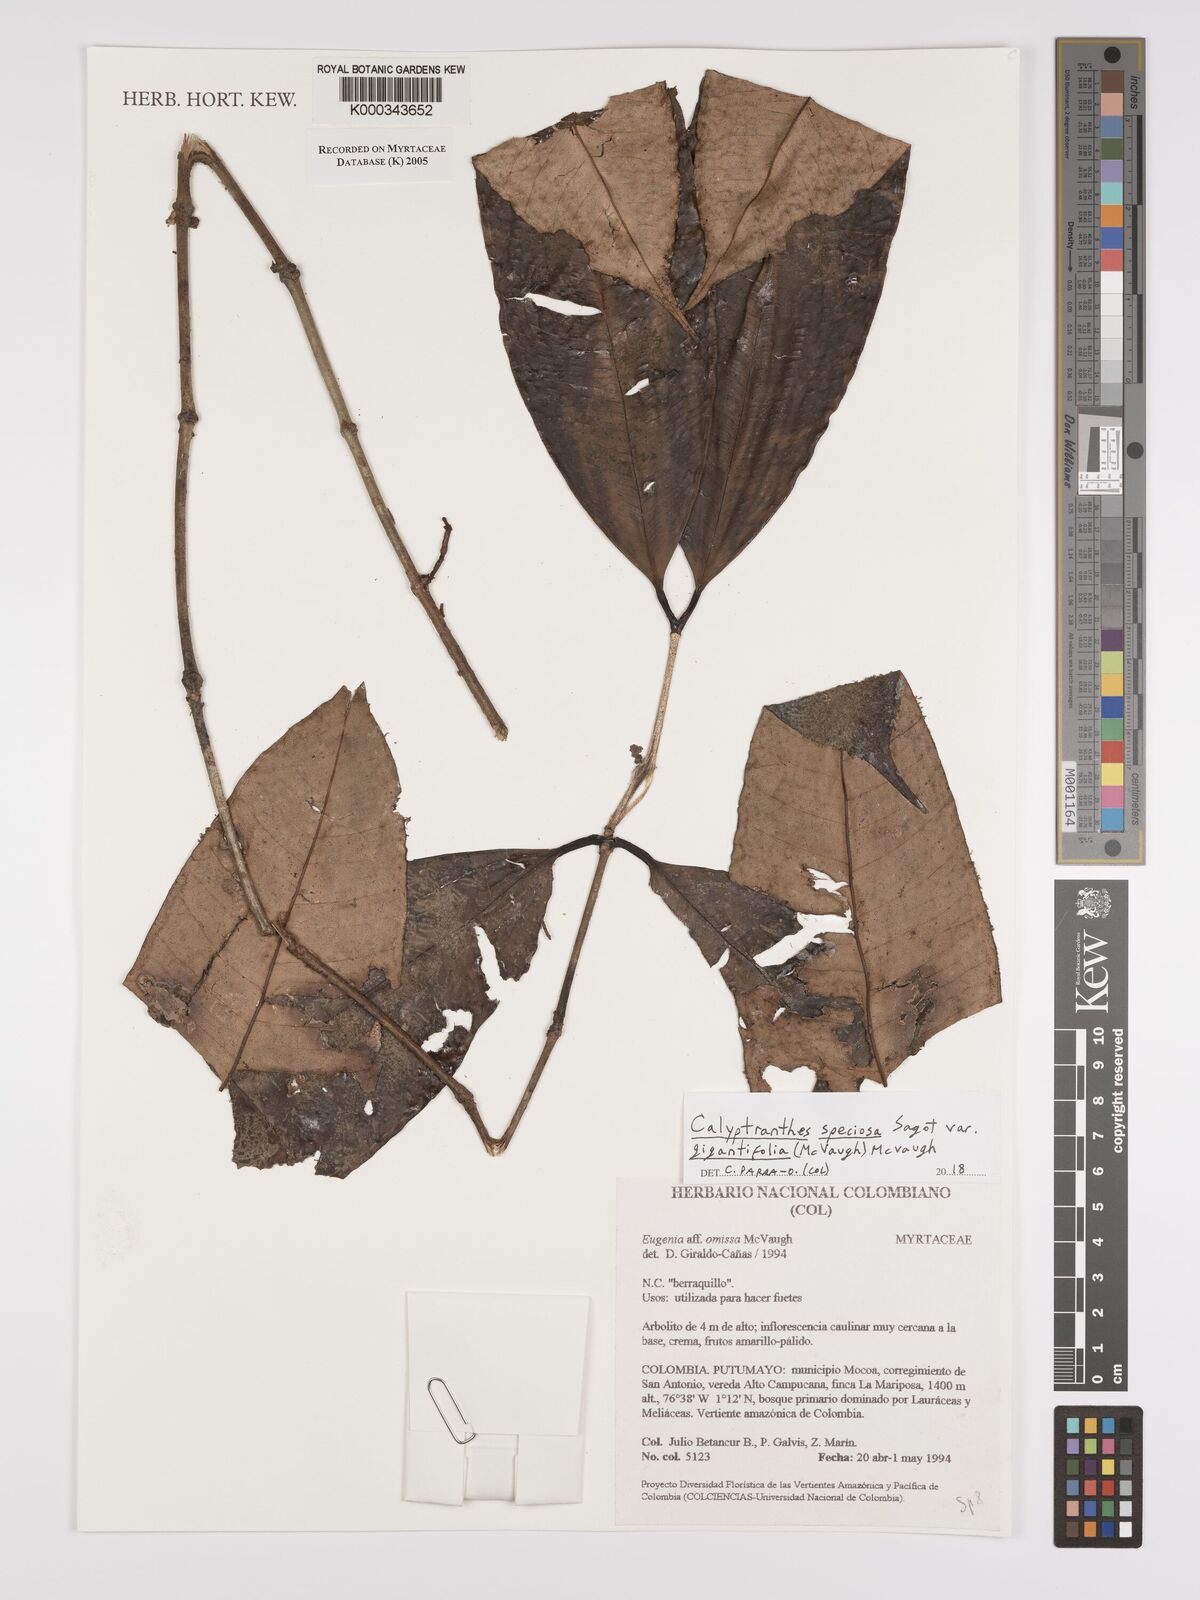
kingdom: Plantae
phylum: Tracheophyta
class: Magnoliopsida
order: Myrtales
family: Myrtaceae
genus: Calyptranthes
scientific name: Calyptranthes
